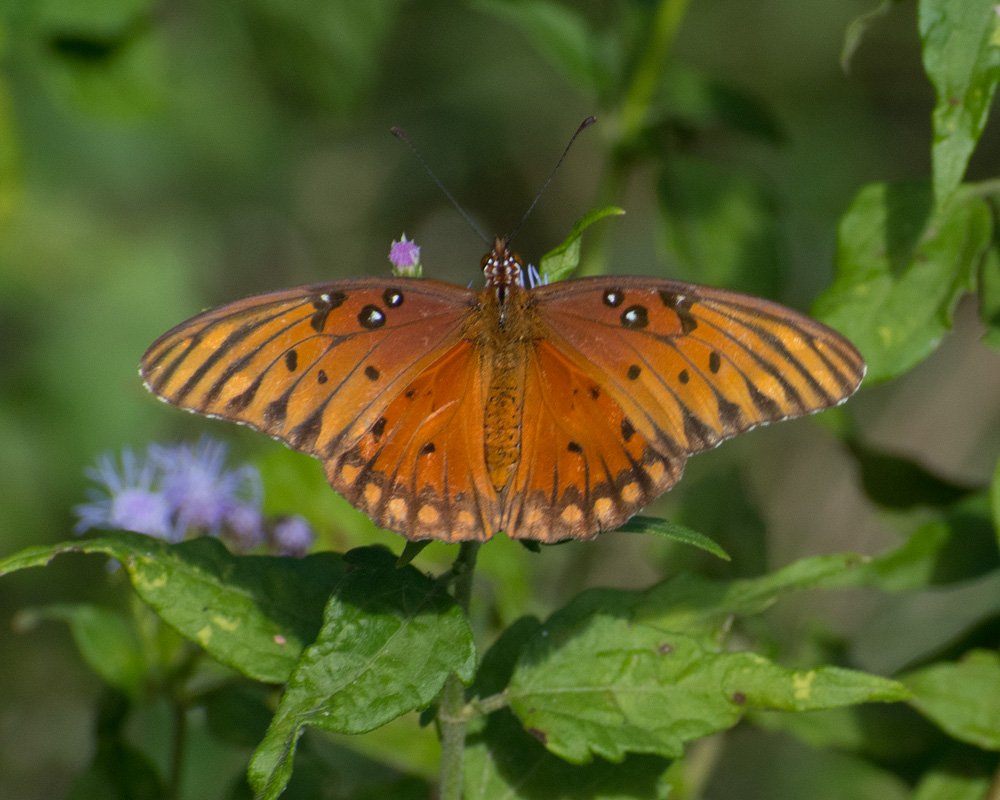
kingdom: Animalia
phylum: Arthropoda
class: Insecta
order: Lepidoptera
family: Nymphalidae
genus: Dione
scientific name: Dione vanillae
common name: Gulf Fritillary
